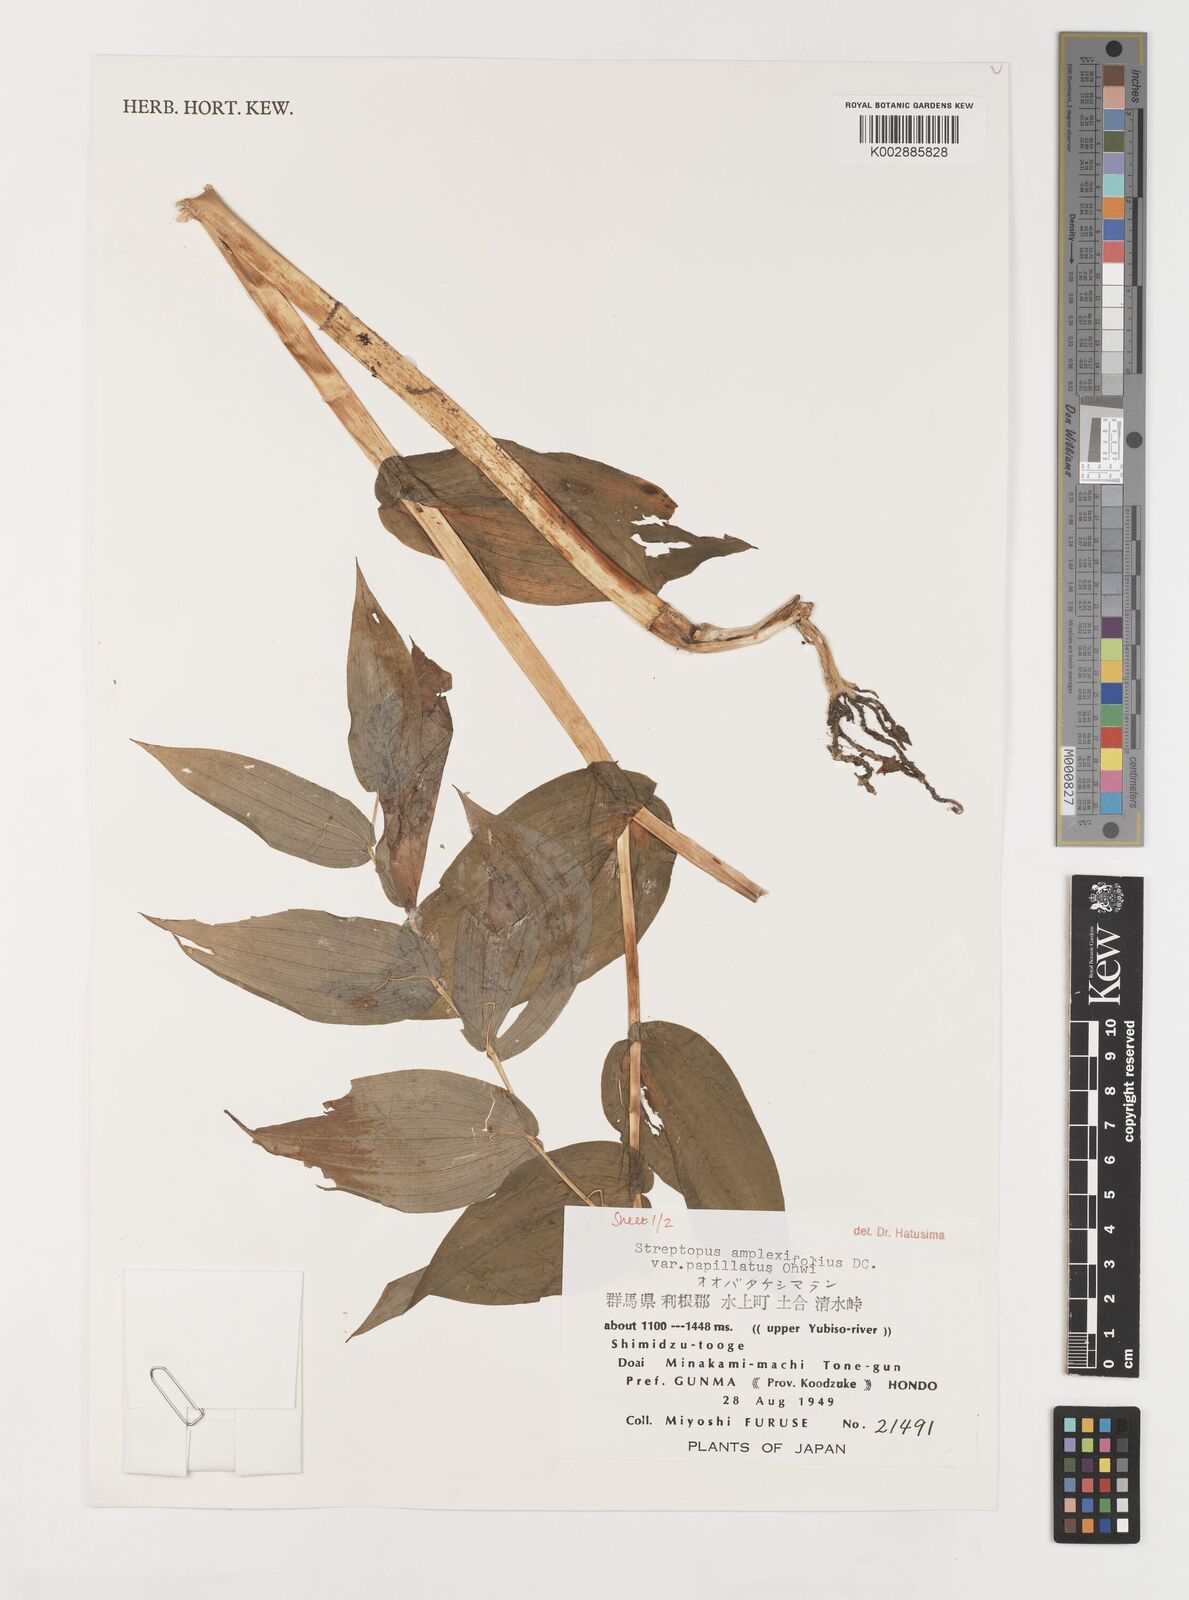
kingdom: Plantae
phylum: Tracheophyta
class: Liliopsida
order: Liliales
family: Liliaceae
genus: Streptopus
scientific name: Streptopus amplexifolius
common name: Clasp twisted stalk
